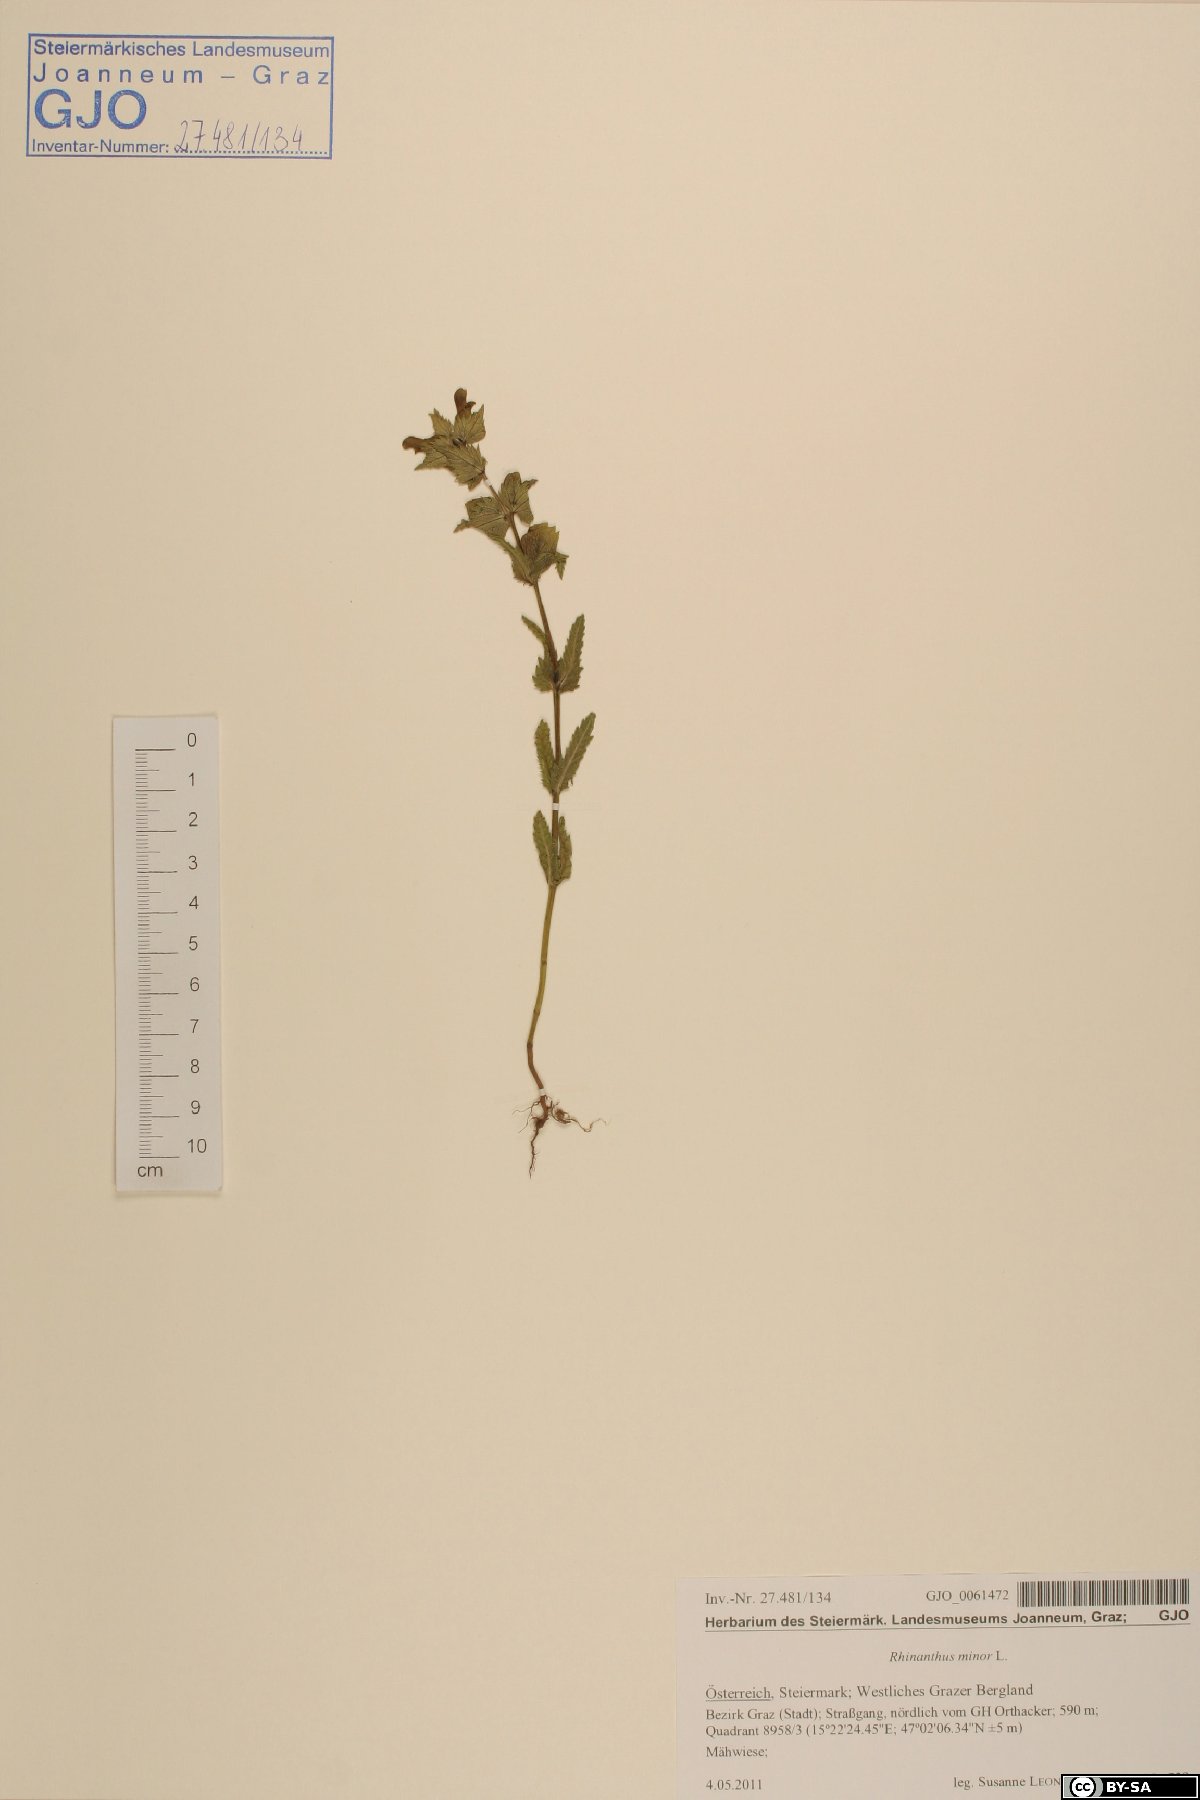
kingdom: Plantae
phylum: Tracheophyta
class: Magnoliopsida
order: Lamiales
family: Orobanchaceae
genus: Rhinanthus
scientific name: Rhinanthus minor
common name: Yellow-rattle
